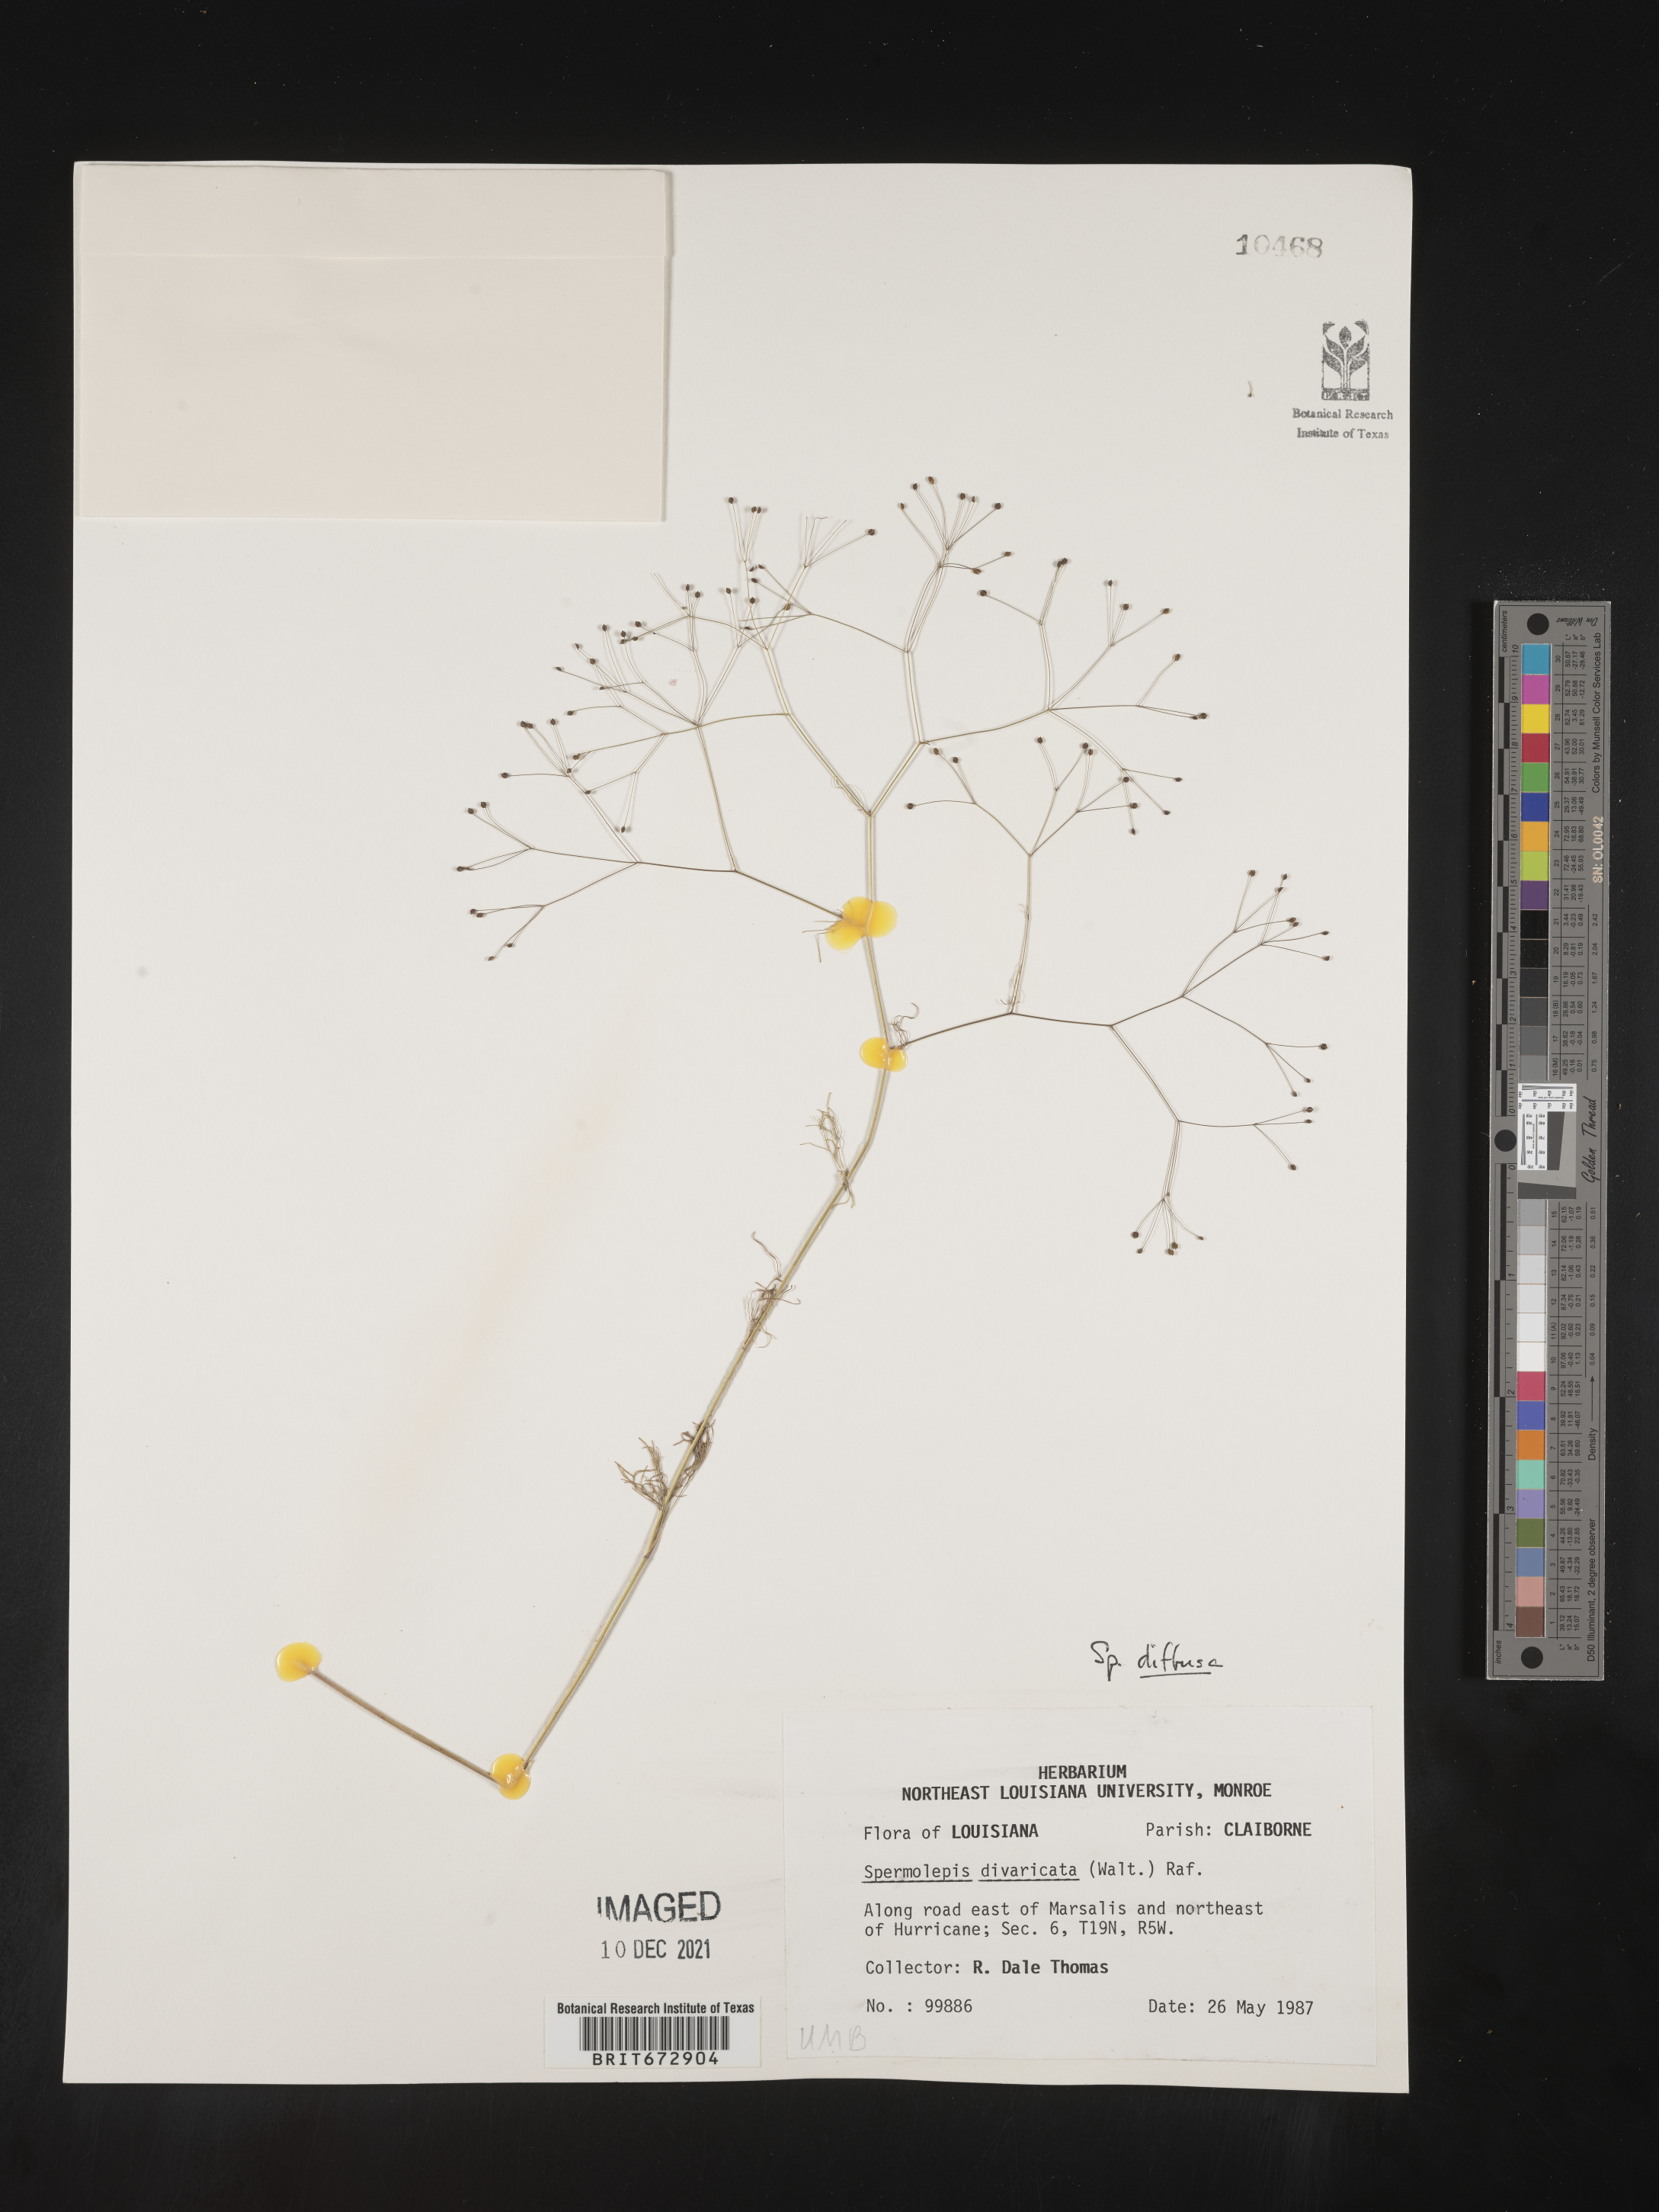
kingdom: Plantae
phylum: Tracheophyta
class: Magnoliopsida
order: Apiales
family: Apiaceae
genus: Spermolepis
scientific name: Spermolepis diffusa
